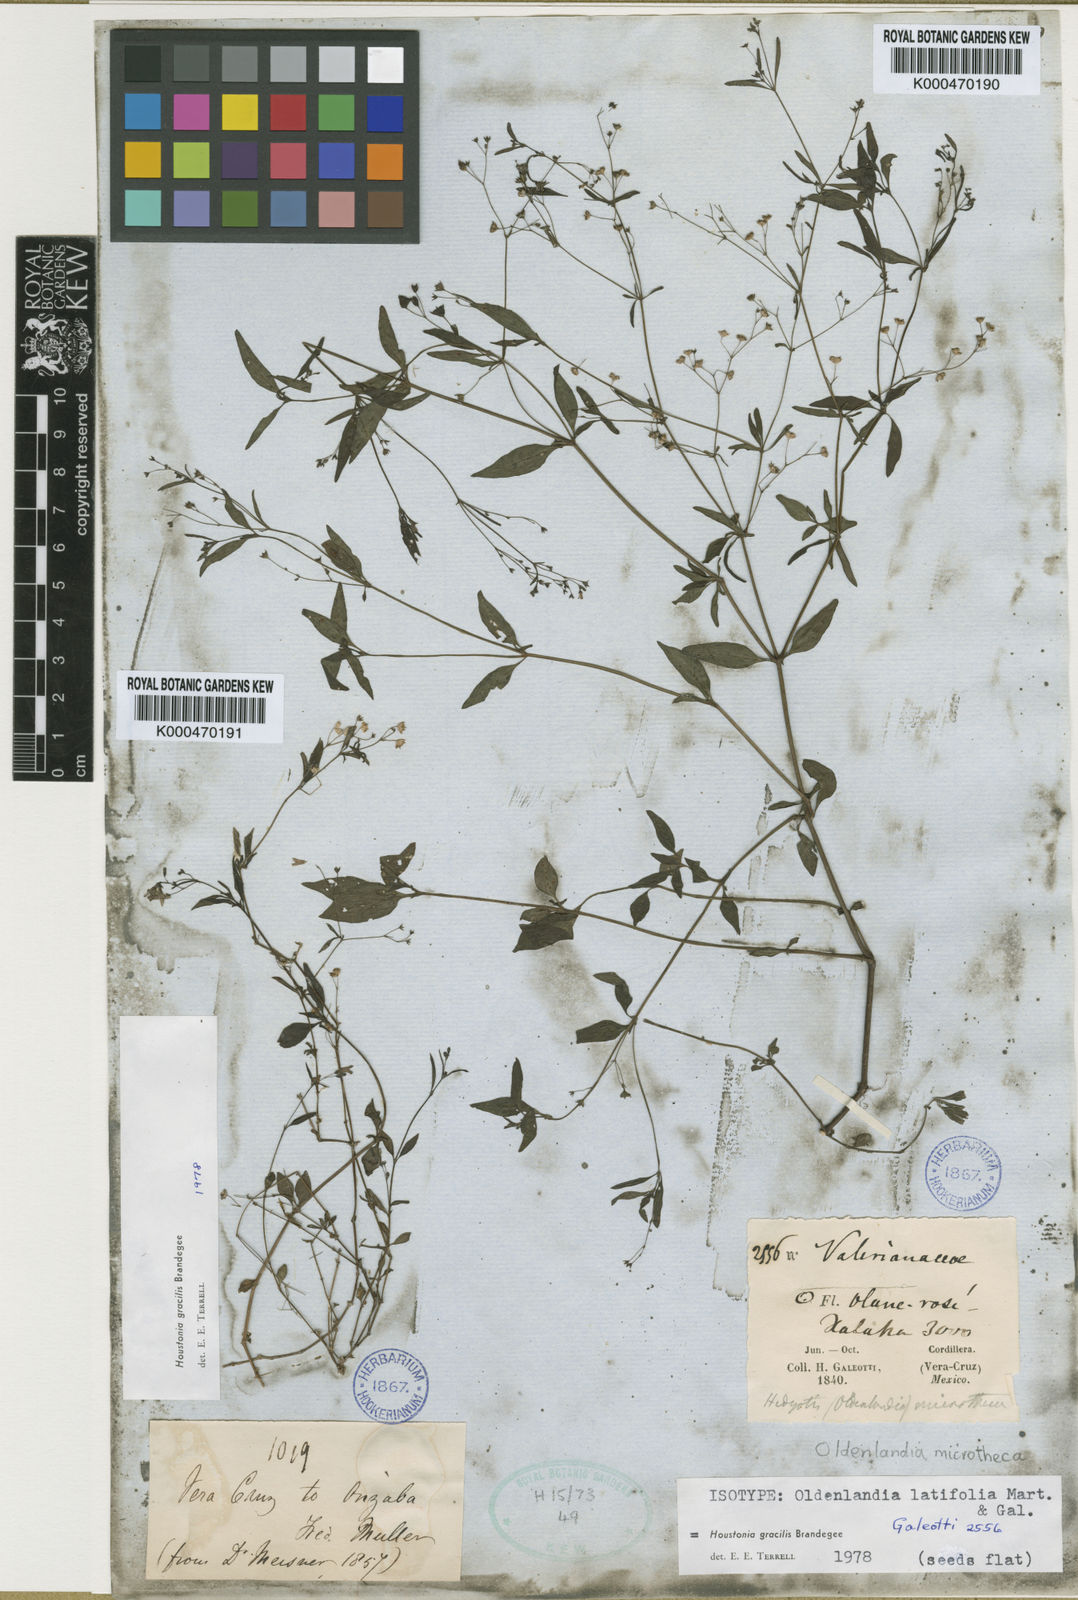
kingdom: Plantae
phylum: Tracheophyta
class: Magnoliopsida
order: Gentianales
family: Rubiaceae
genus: Mexotis
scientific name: Mexotis latifolia
